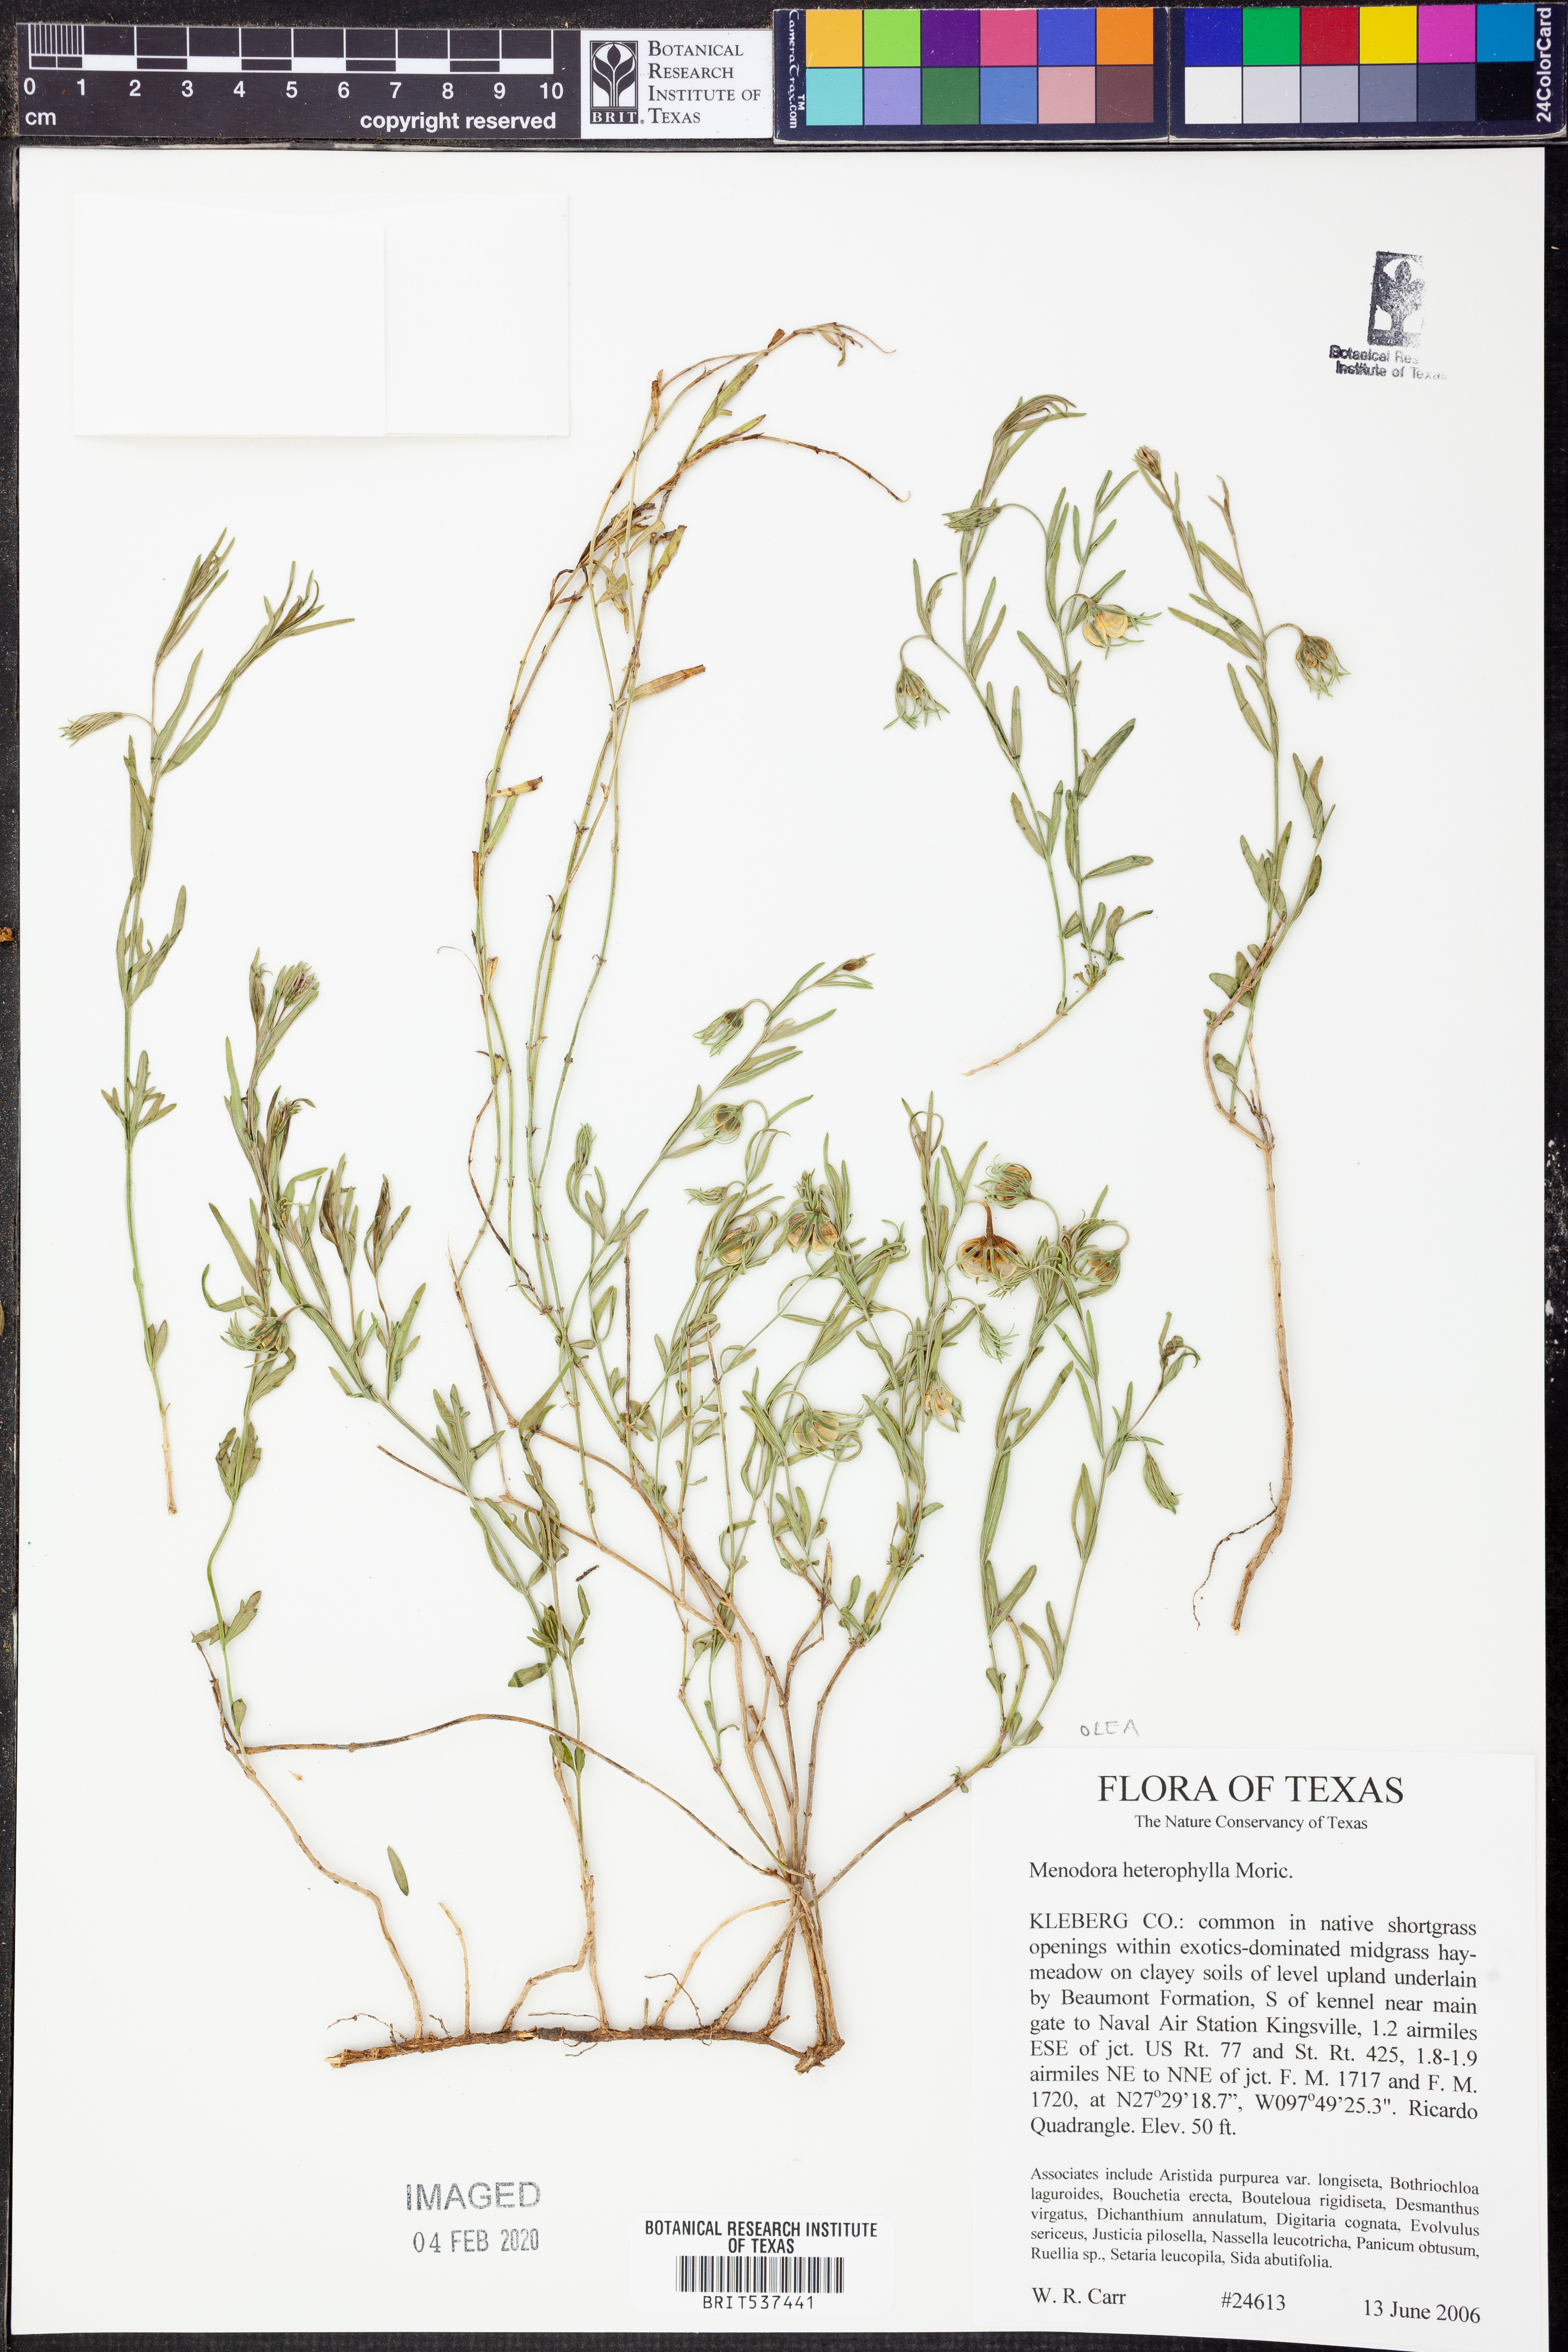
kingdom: Plantae
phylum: Tracheophyta
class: Magnoliopsida
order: Lamiales
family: Oleaceae
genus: Menodora
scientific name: Menodora heterophylla
